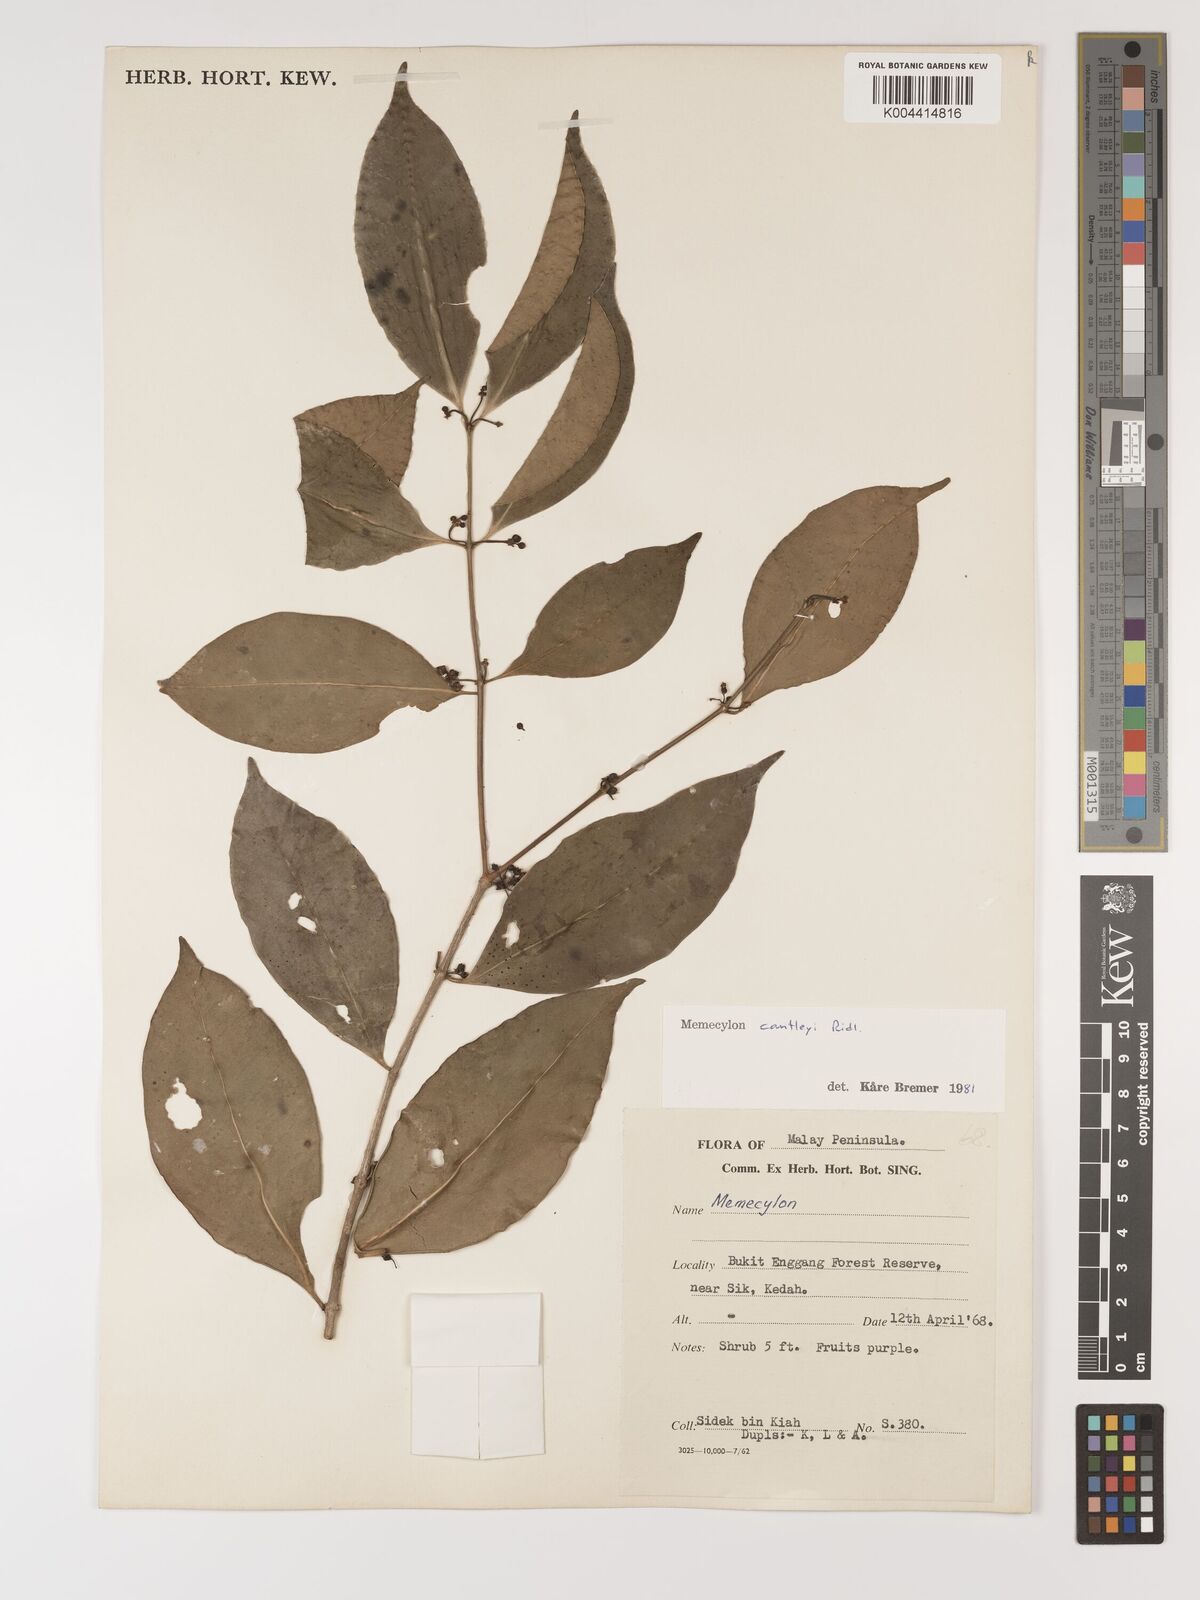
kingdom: Plantae
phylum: Tracheophyta
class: Magnoliopsida
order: Myrtales
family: Melastomataceae
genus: Memecylon
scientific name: Memecylon cantleyi
